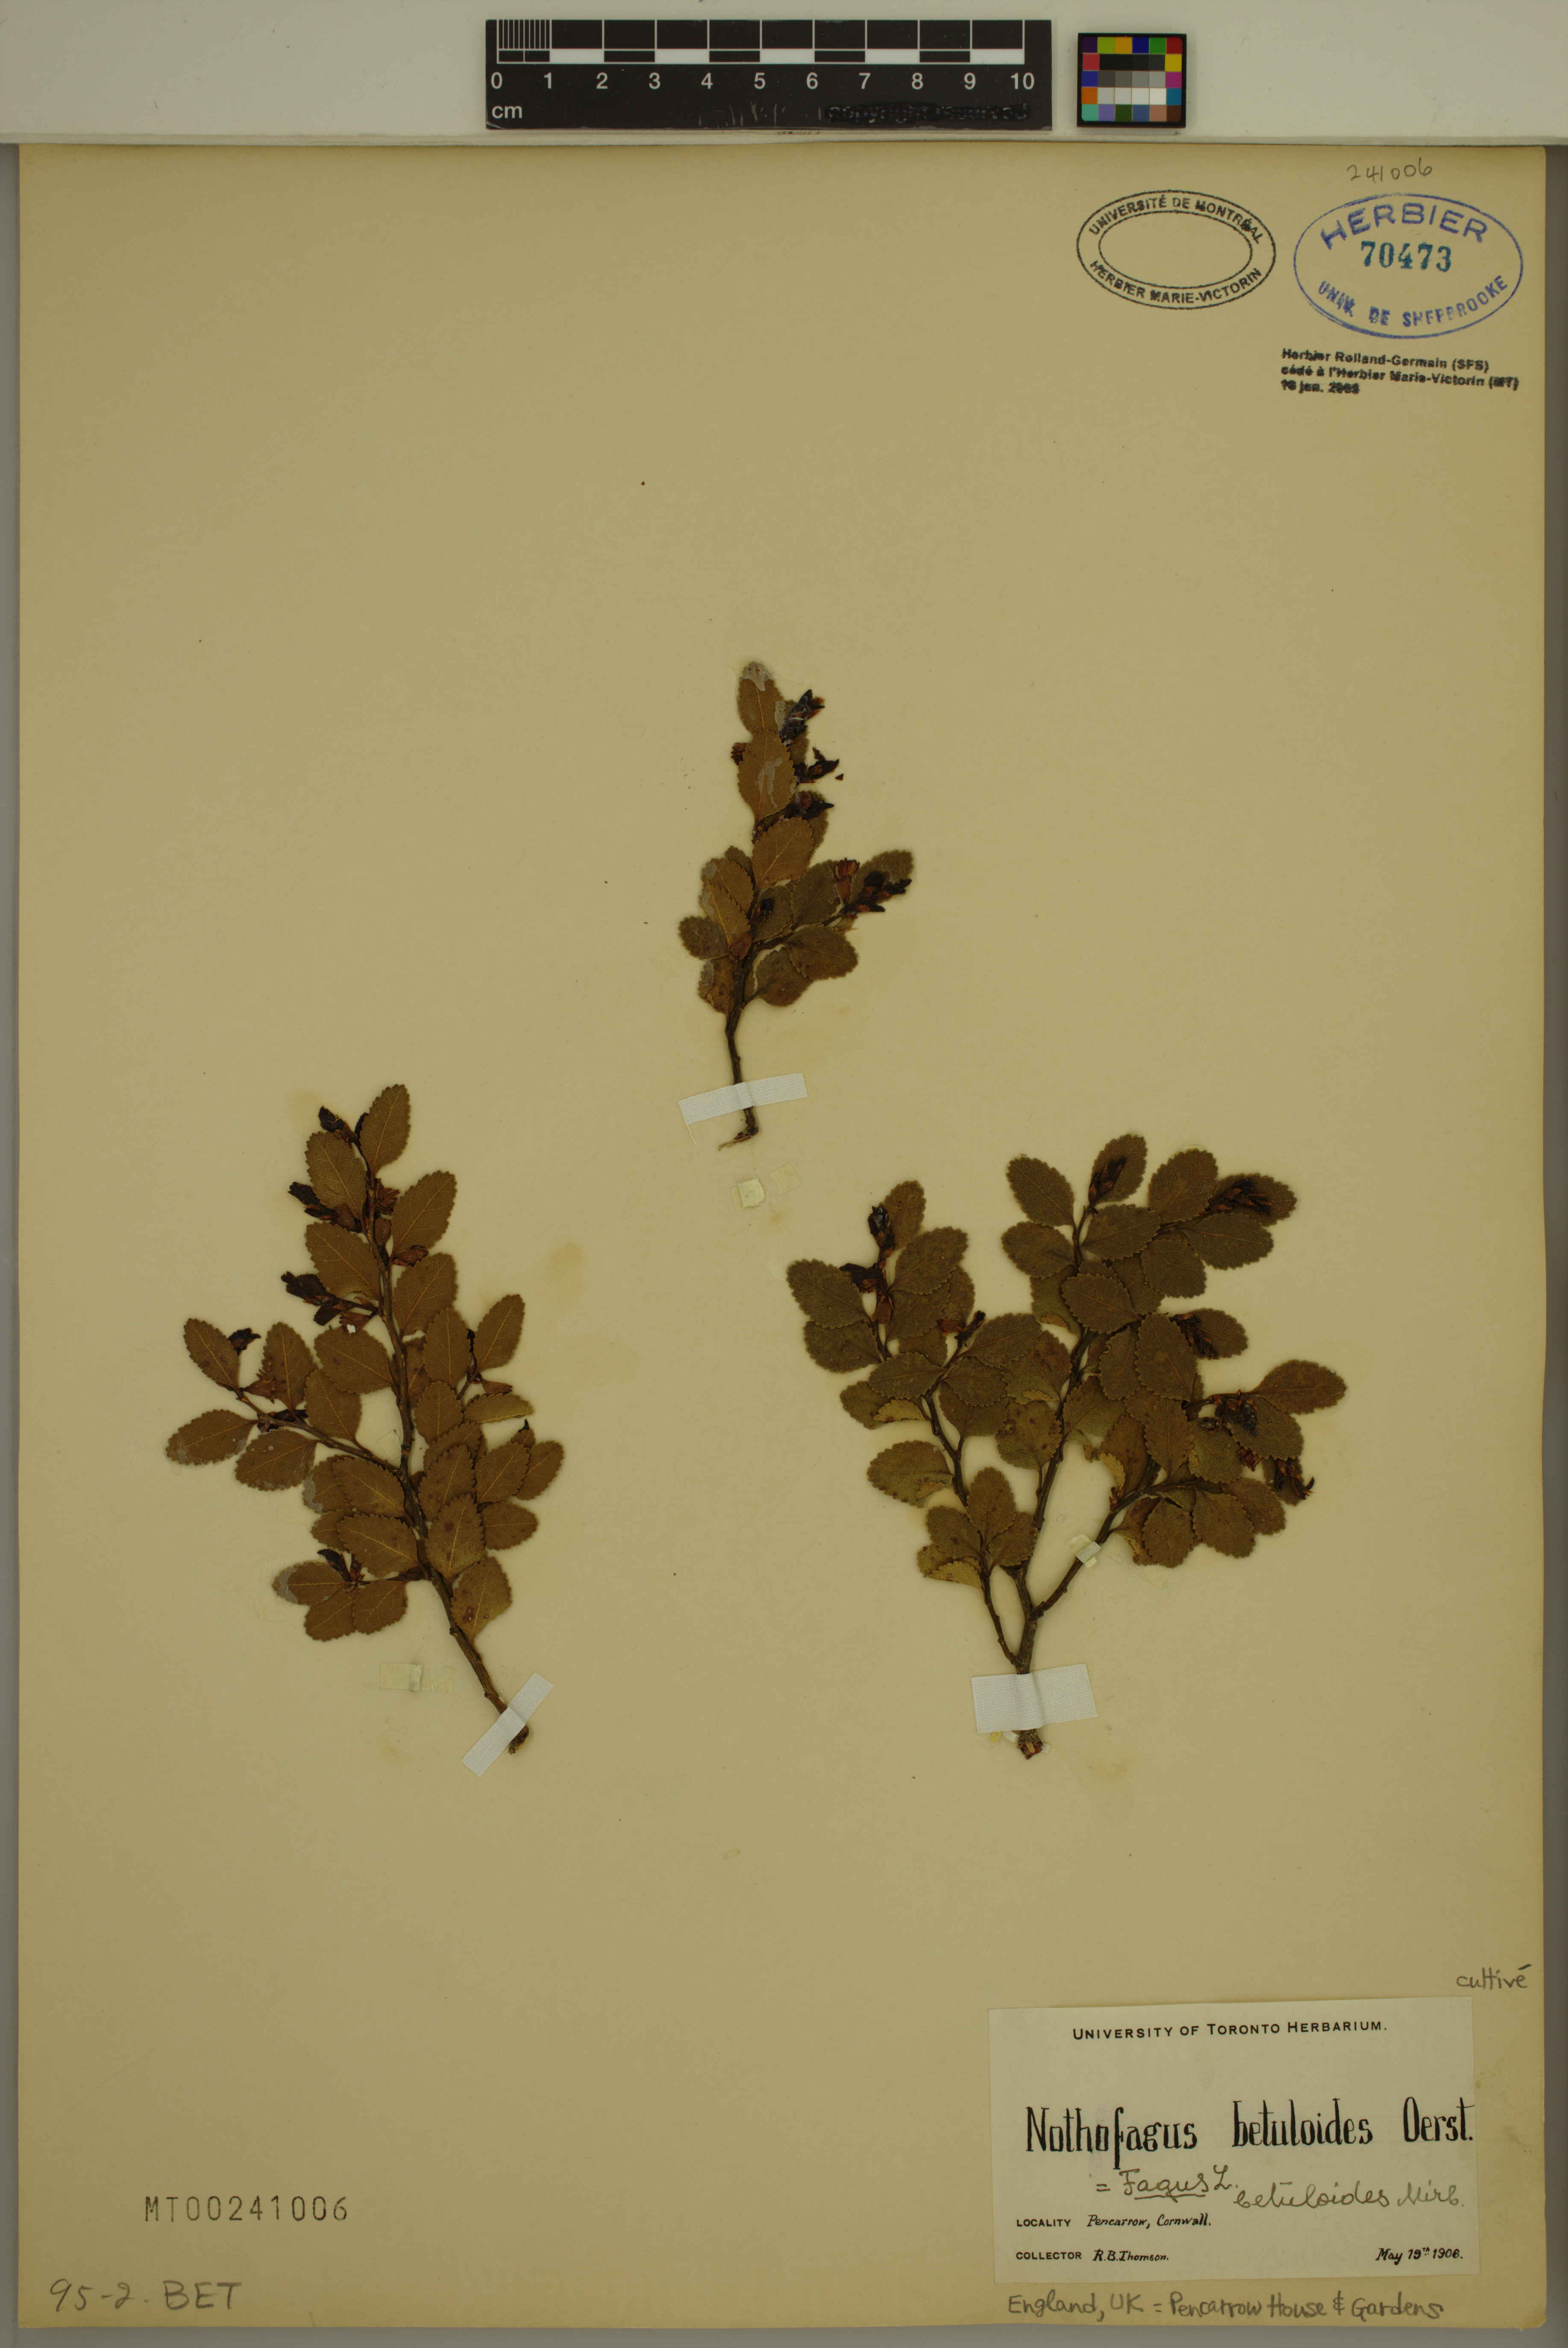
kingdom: Plantae
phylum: Tracheophyta
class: Magnoliopsida
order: Fagales
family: Nothofagaceae
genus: Nothofagus
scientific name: Nothofagus betuloides
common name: Magellan's beech
